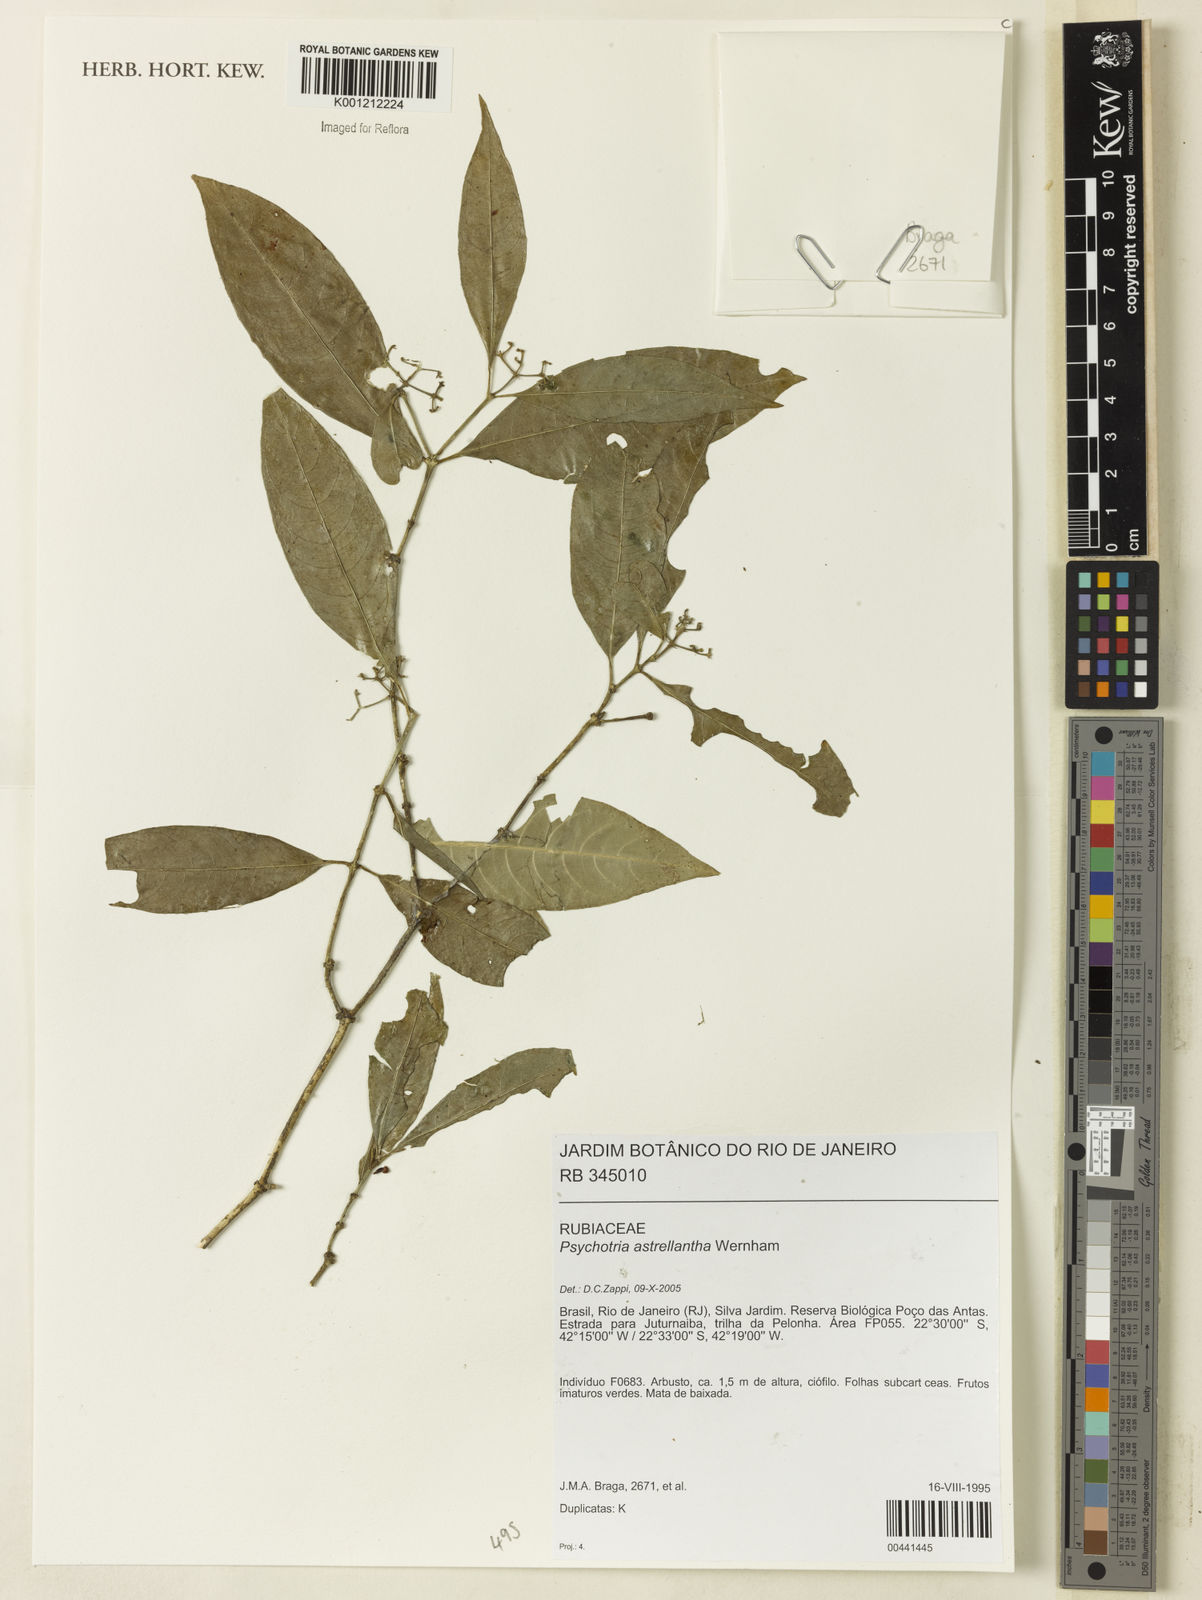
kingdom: Plantae
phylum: Tracheophyta
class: Magnoliopsida
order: Gentianales
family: Rubiaceae
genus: Eumachia
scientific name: Eumachia astrellantha
